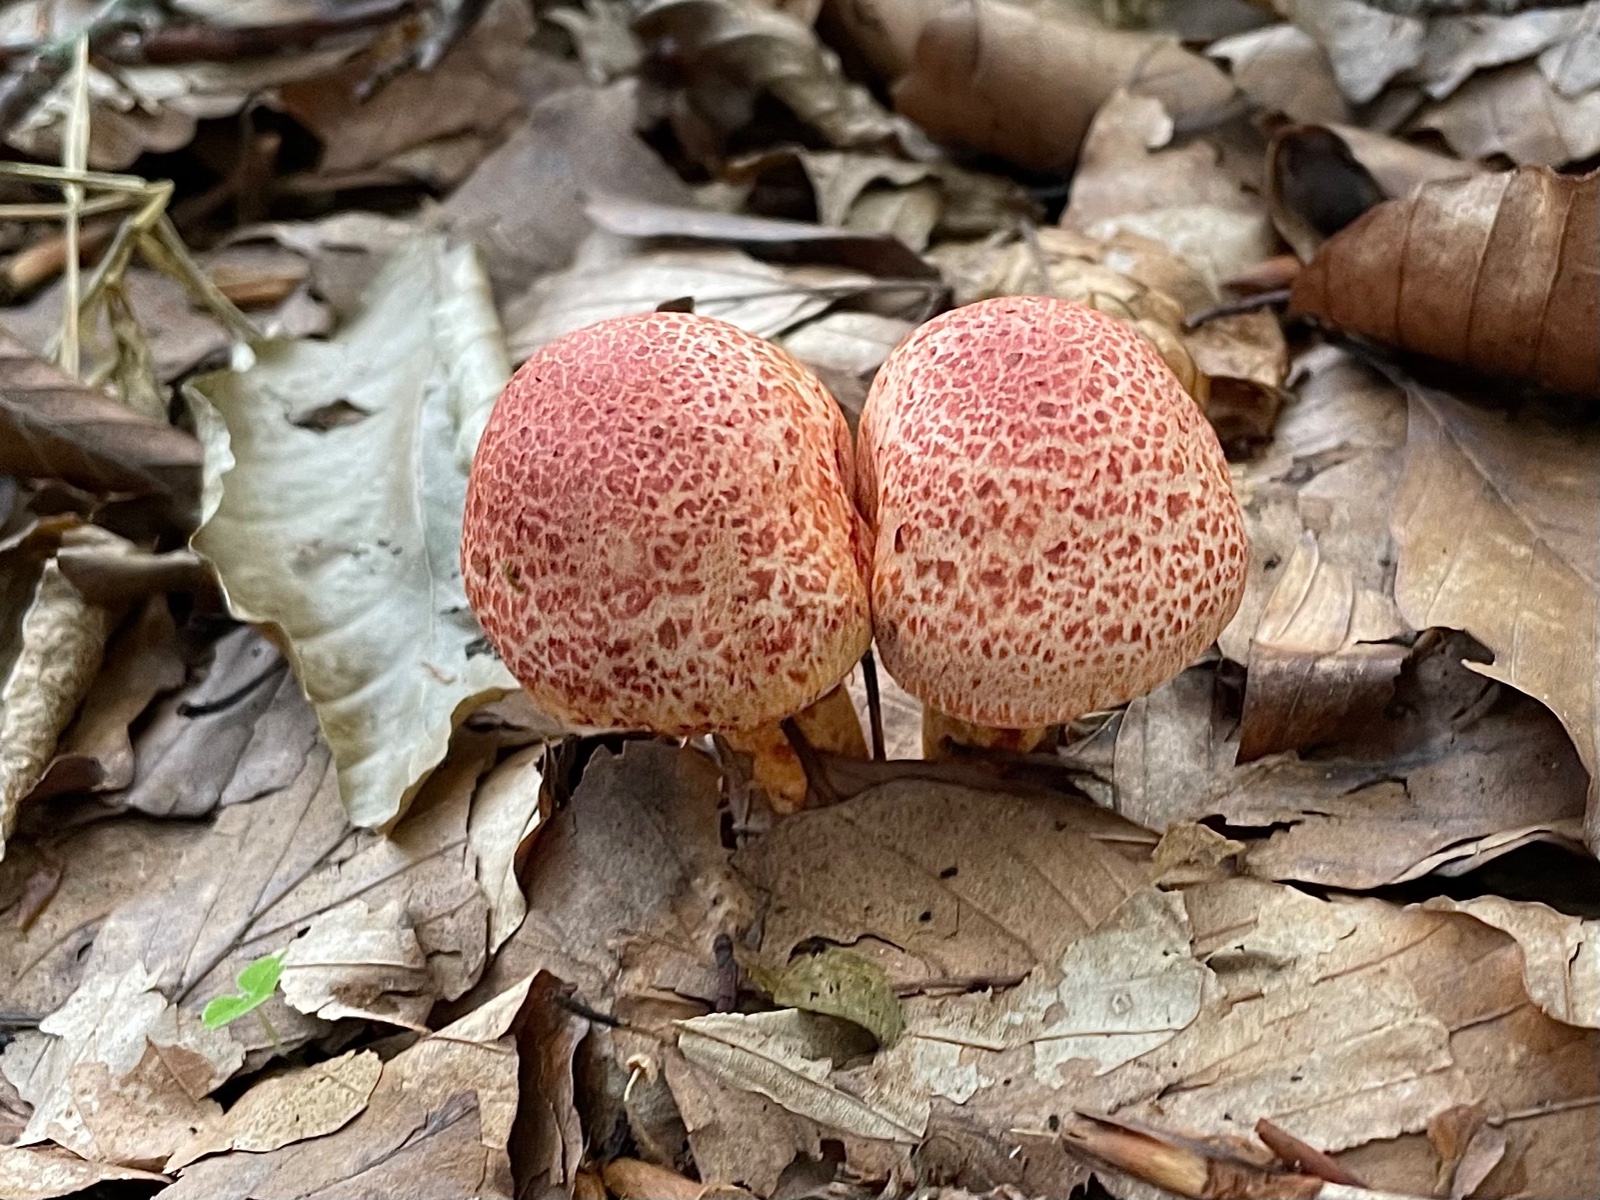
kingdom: Fungi
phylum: Basidiomycota
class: Agaricomycetes
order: Agaricales
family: Cortinariaceae
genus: Cortinarius
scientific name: Cortinarius bolaris
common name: cinnoberskællet slørhat
